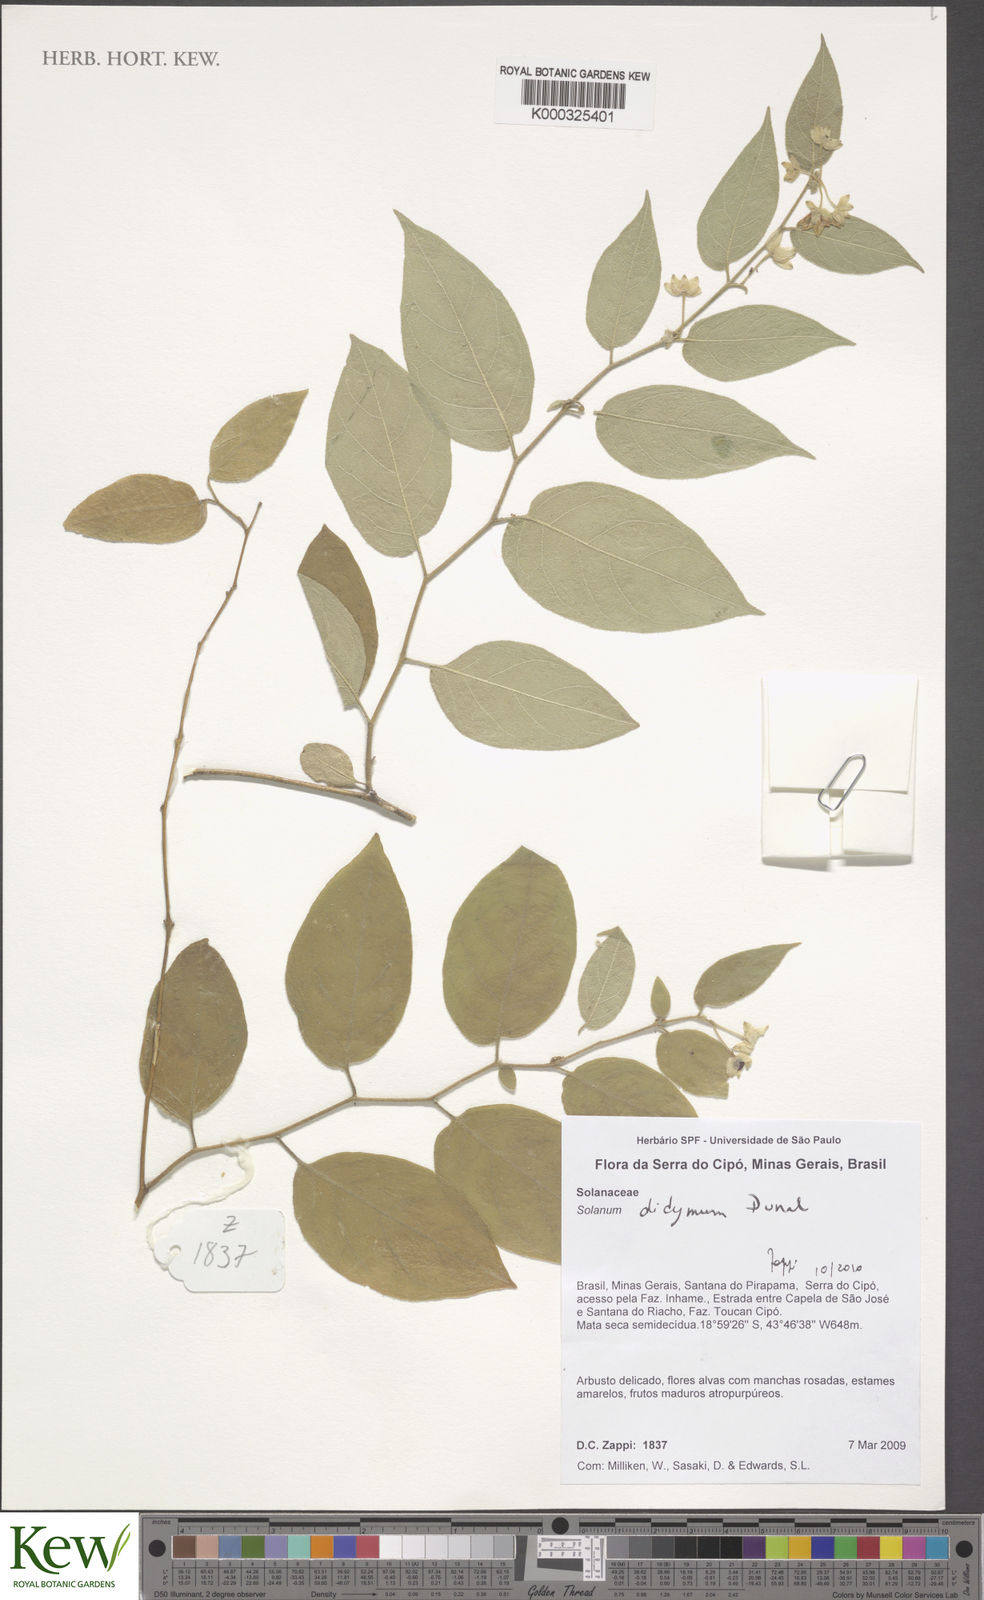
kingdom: Plantae
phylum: Tracheophyta
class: Magnoliopsida
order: Solanales
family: Solanaceae
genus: Solanum
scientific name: Solanum didymum
